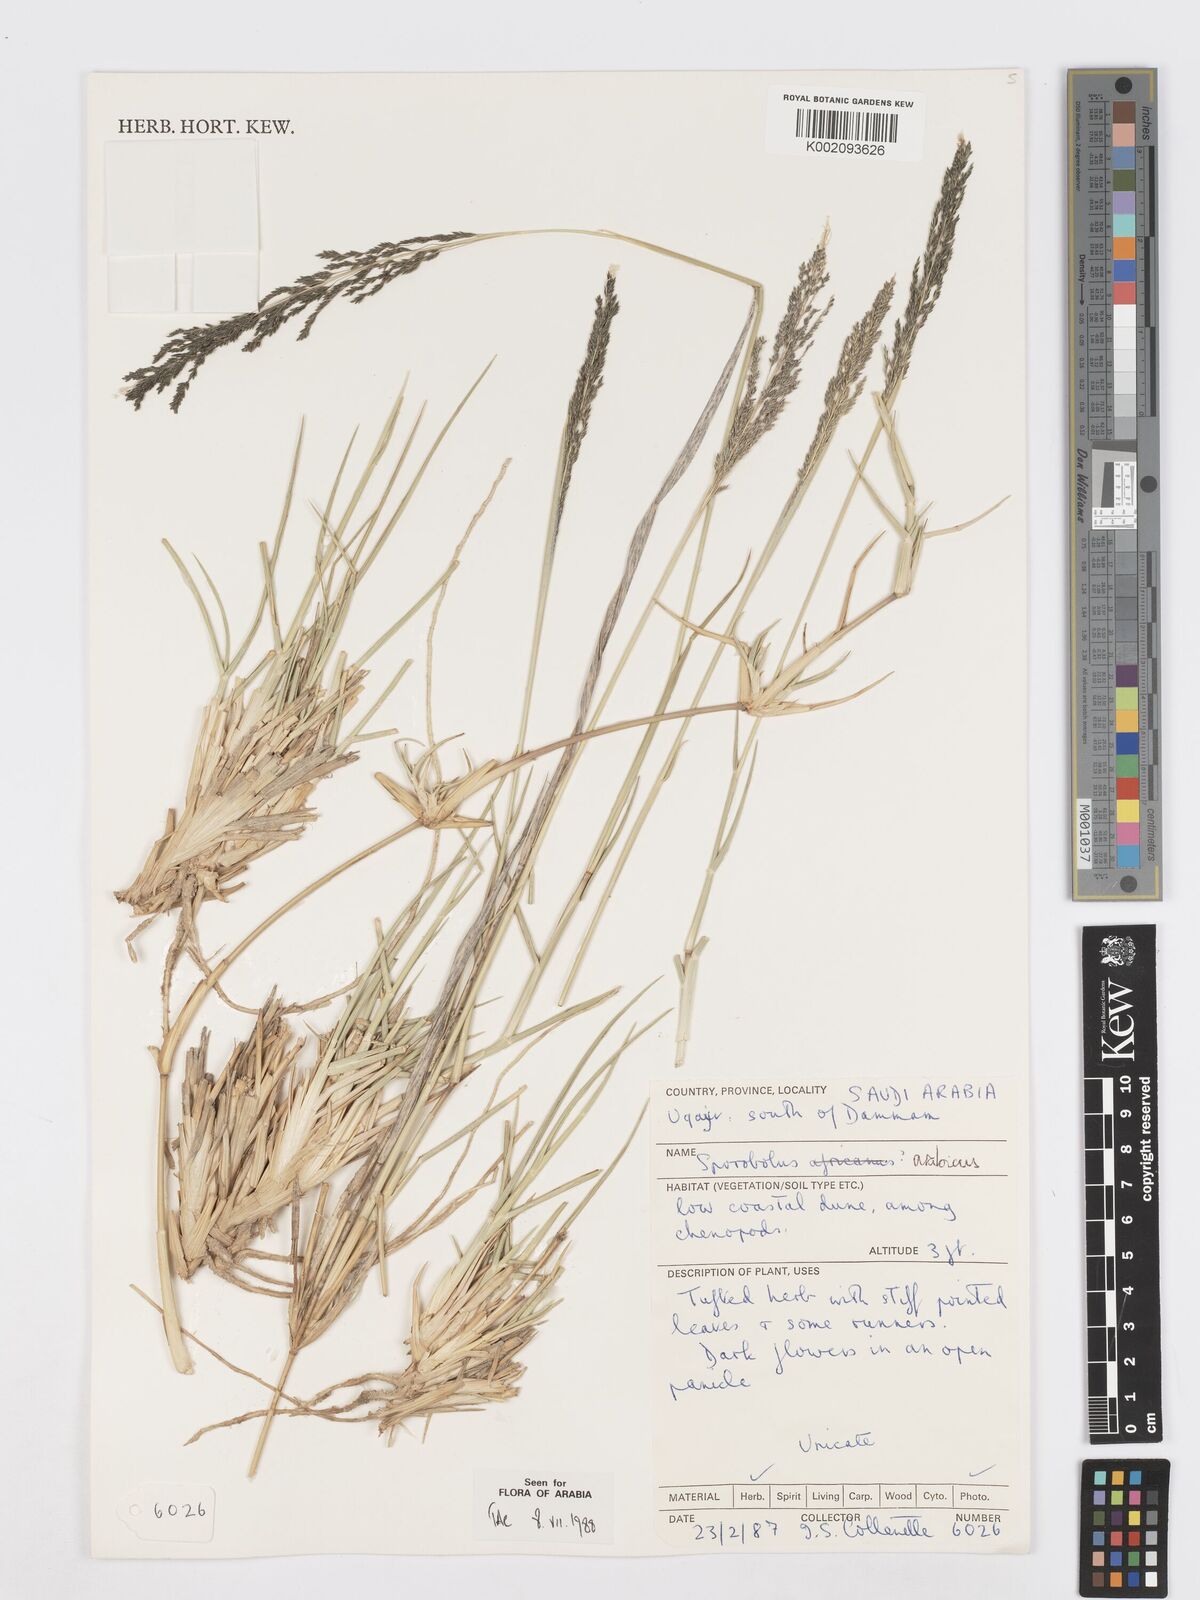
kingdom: Plantae
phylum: Tracheophyta
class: Liliopsida
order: Poales
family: Poaceae
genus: Sporobolus
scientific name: Sporobolus ioclados
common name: Pan dropseed
